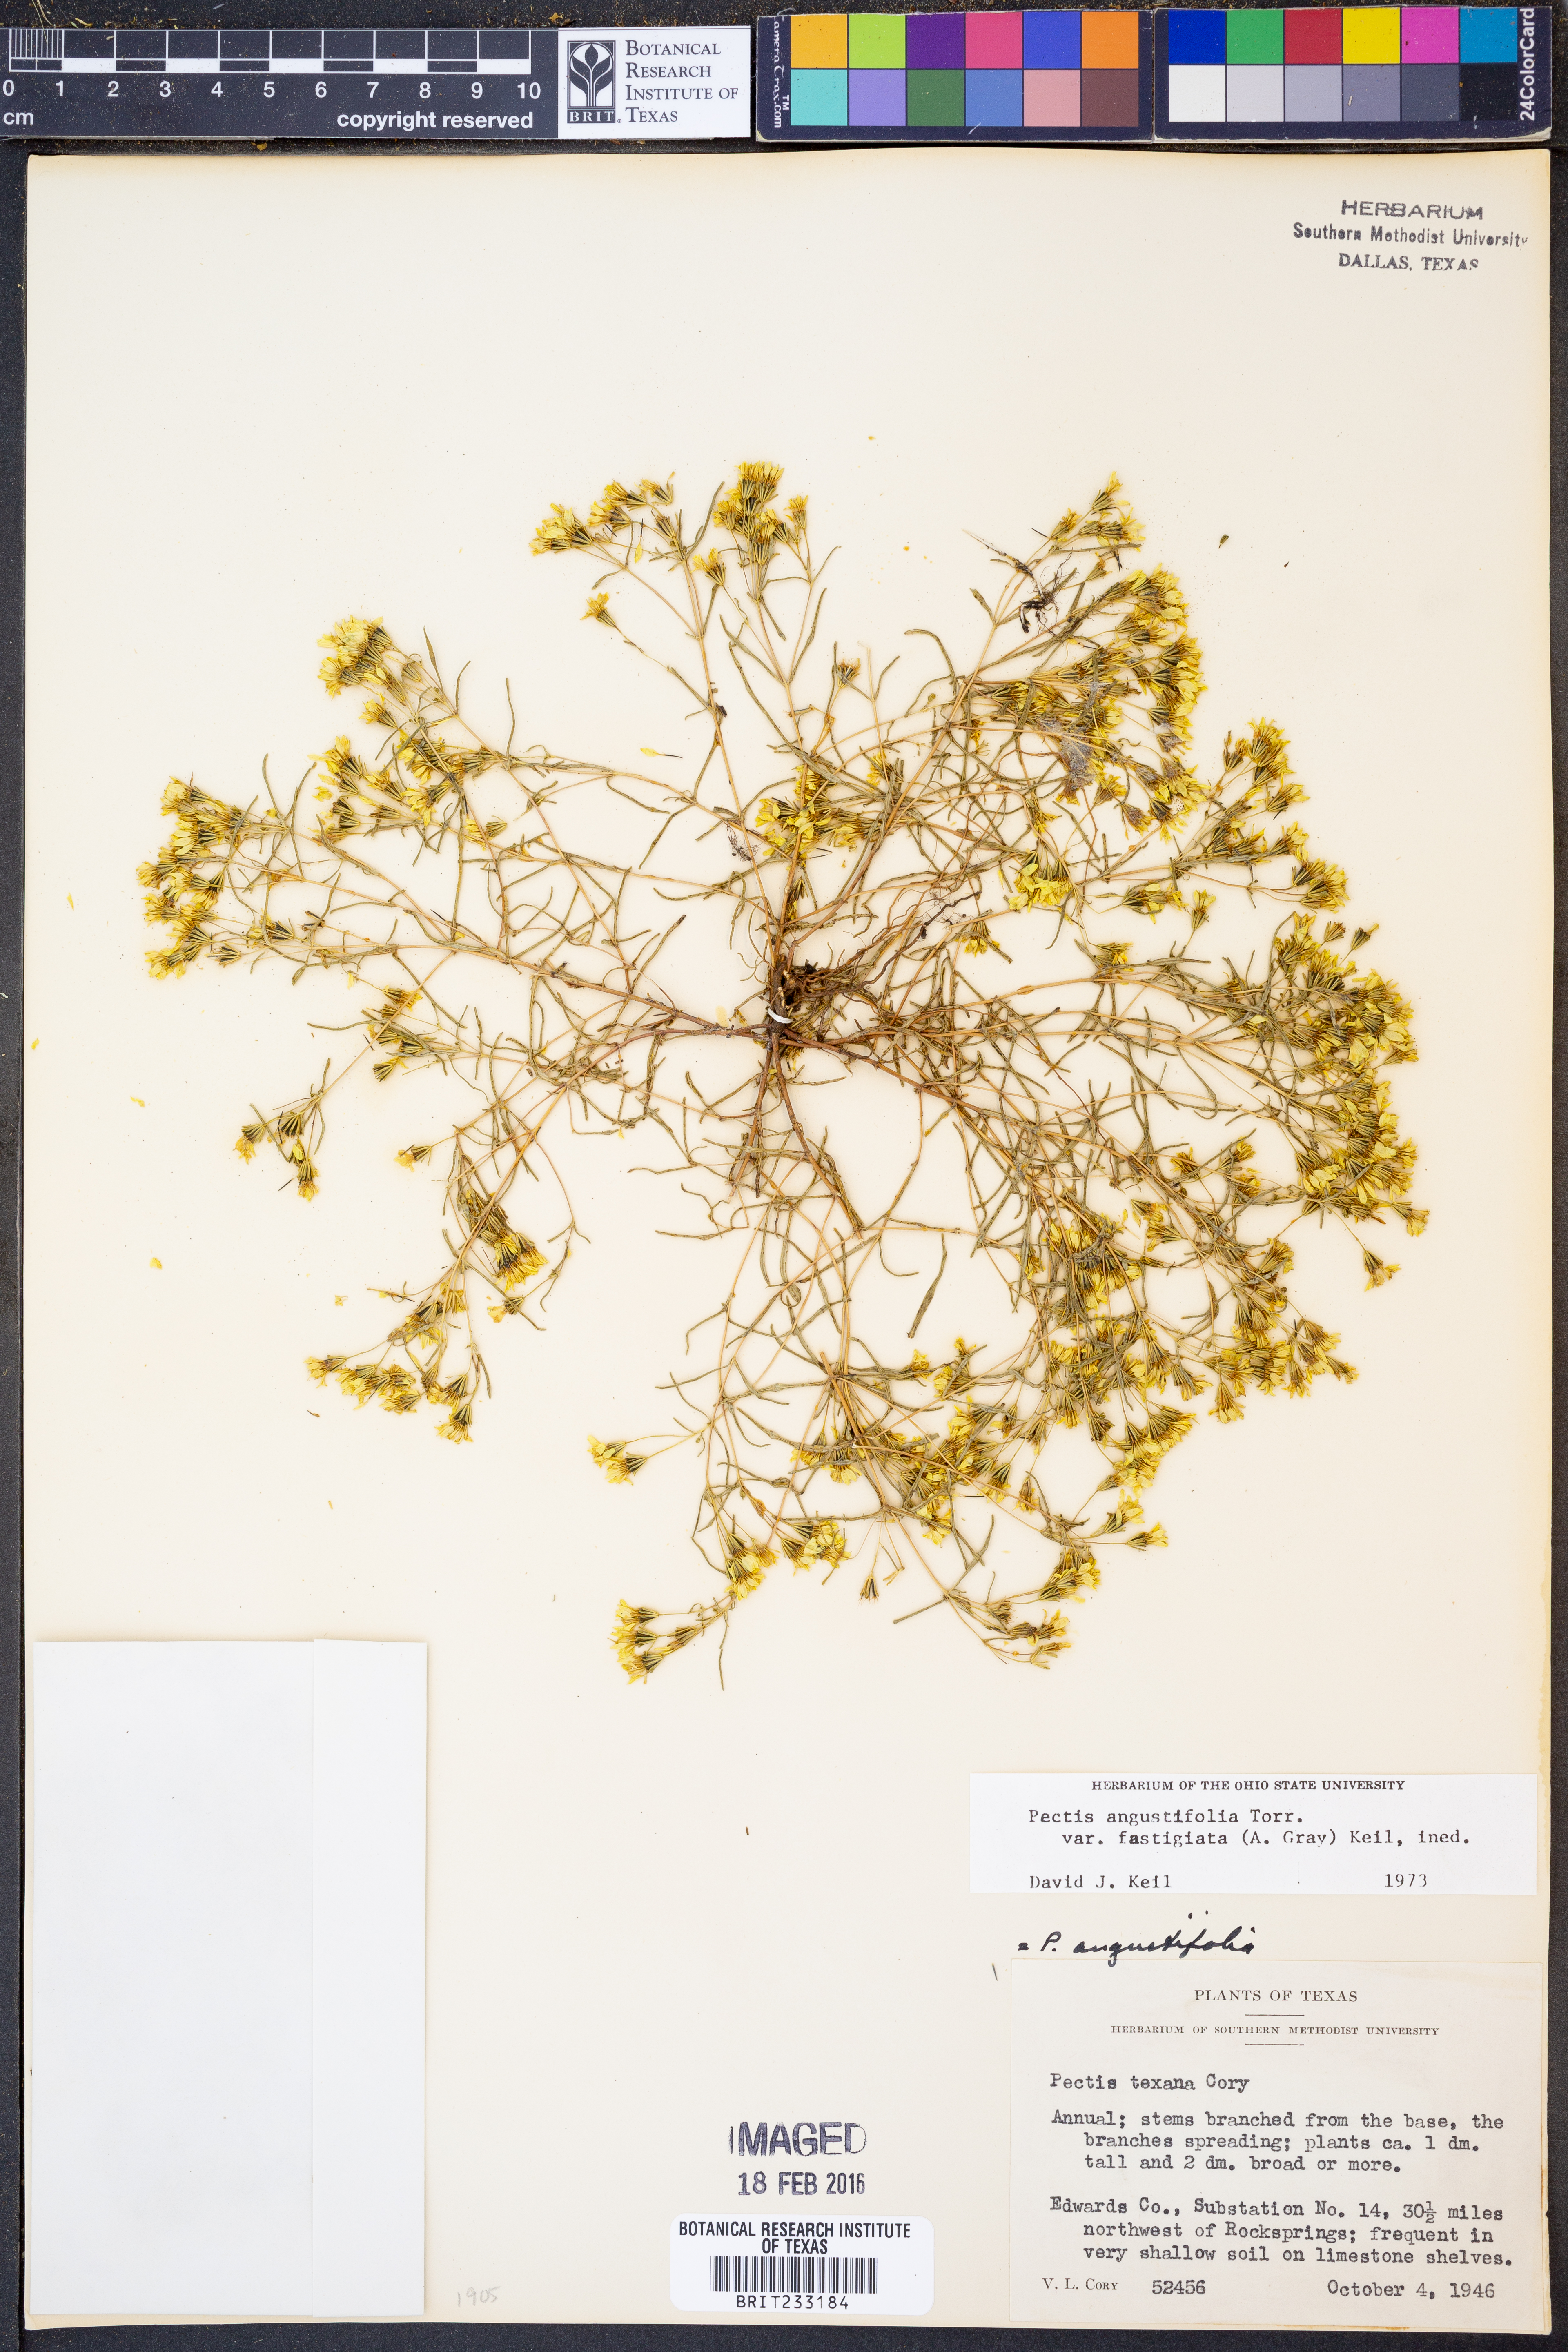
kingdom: Plantae
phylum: Tracheophyta
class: Magnoliopsida
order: Asterales
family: Asteraceae
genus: Pectis
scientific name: Pectis angustifolia
